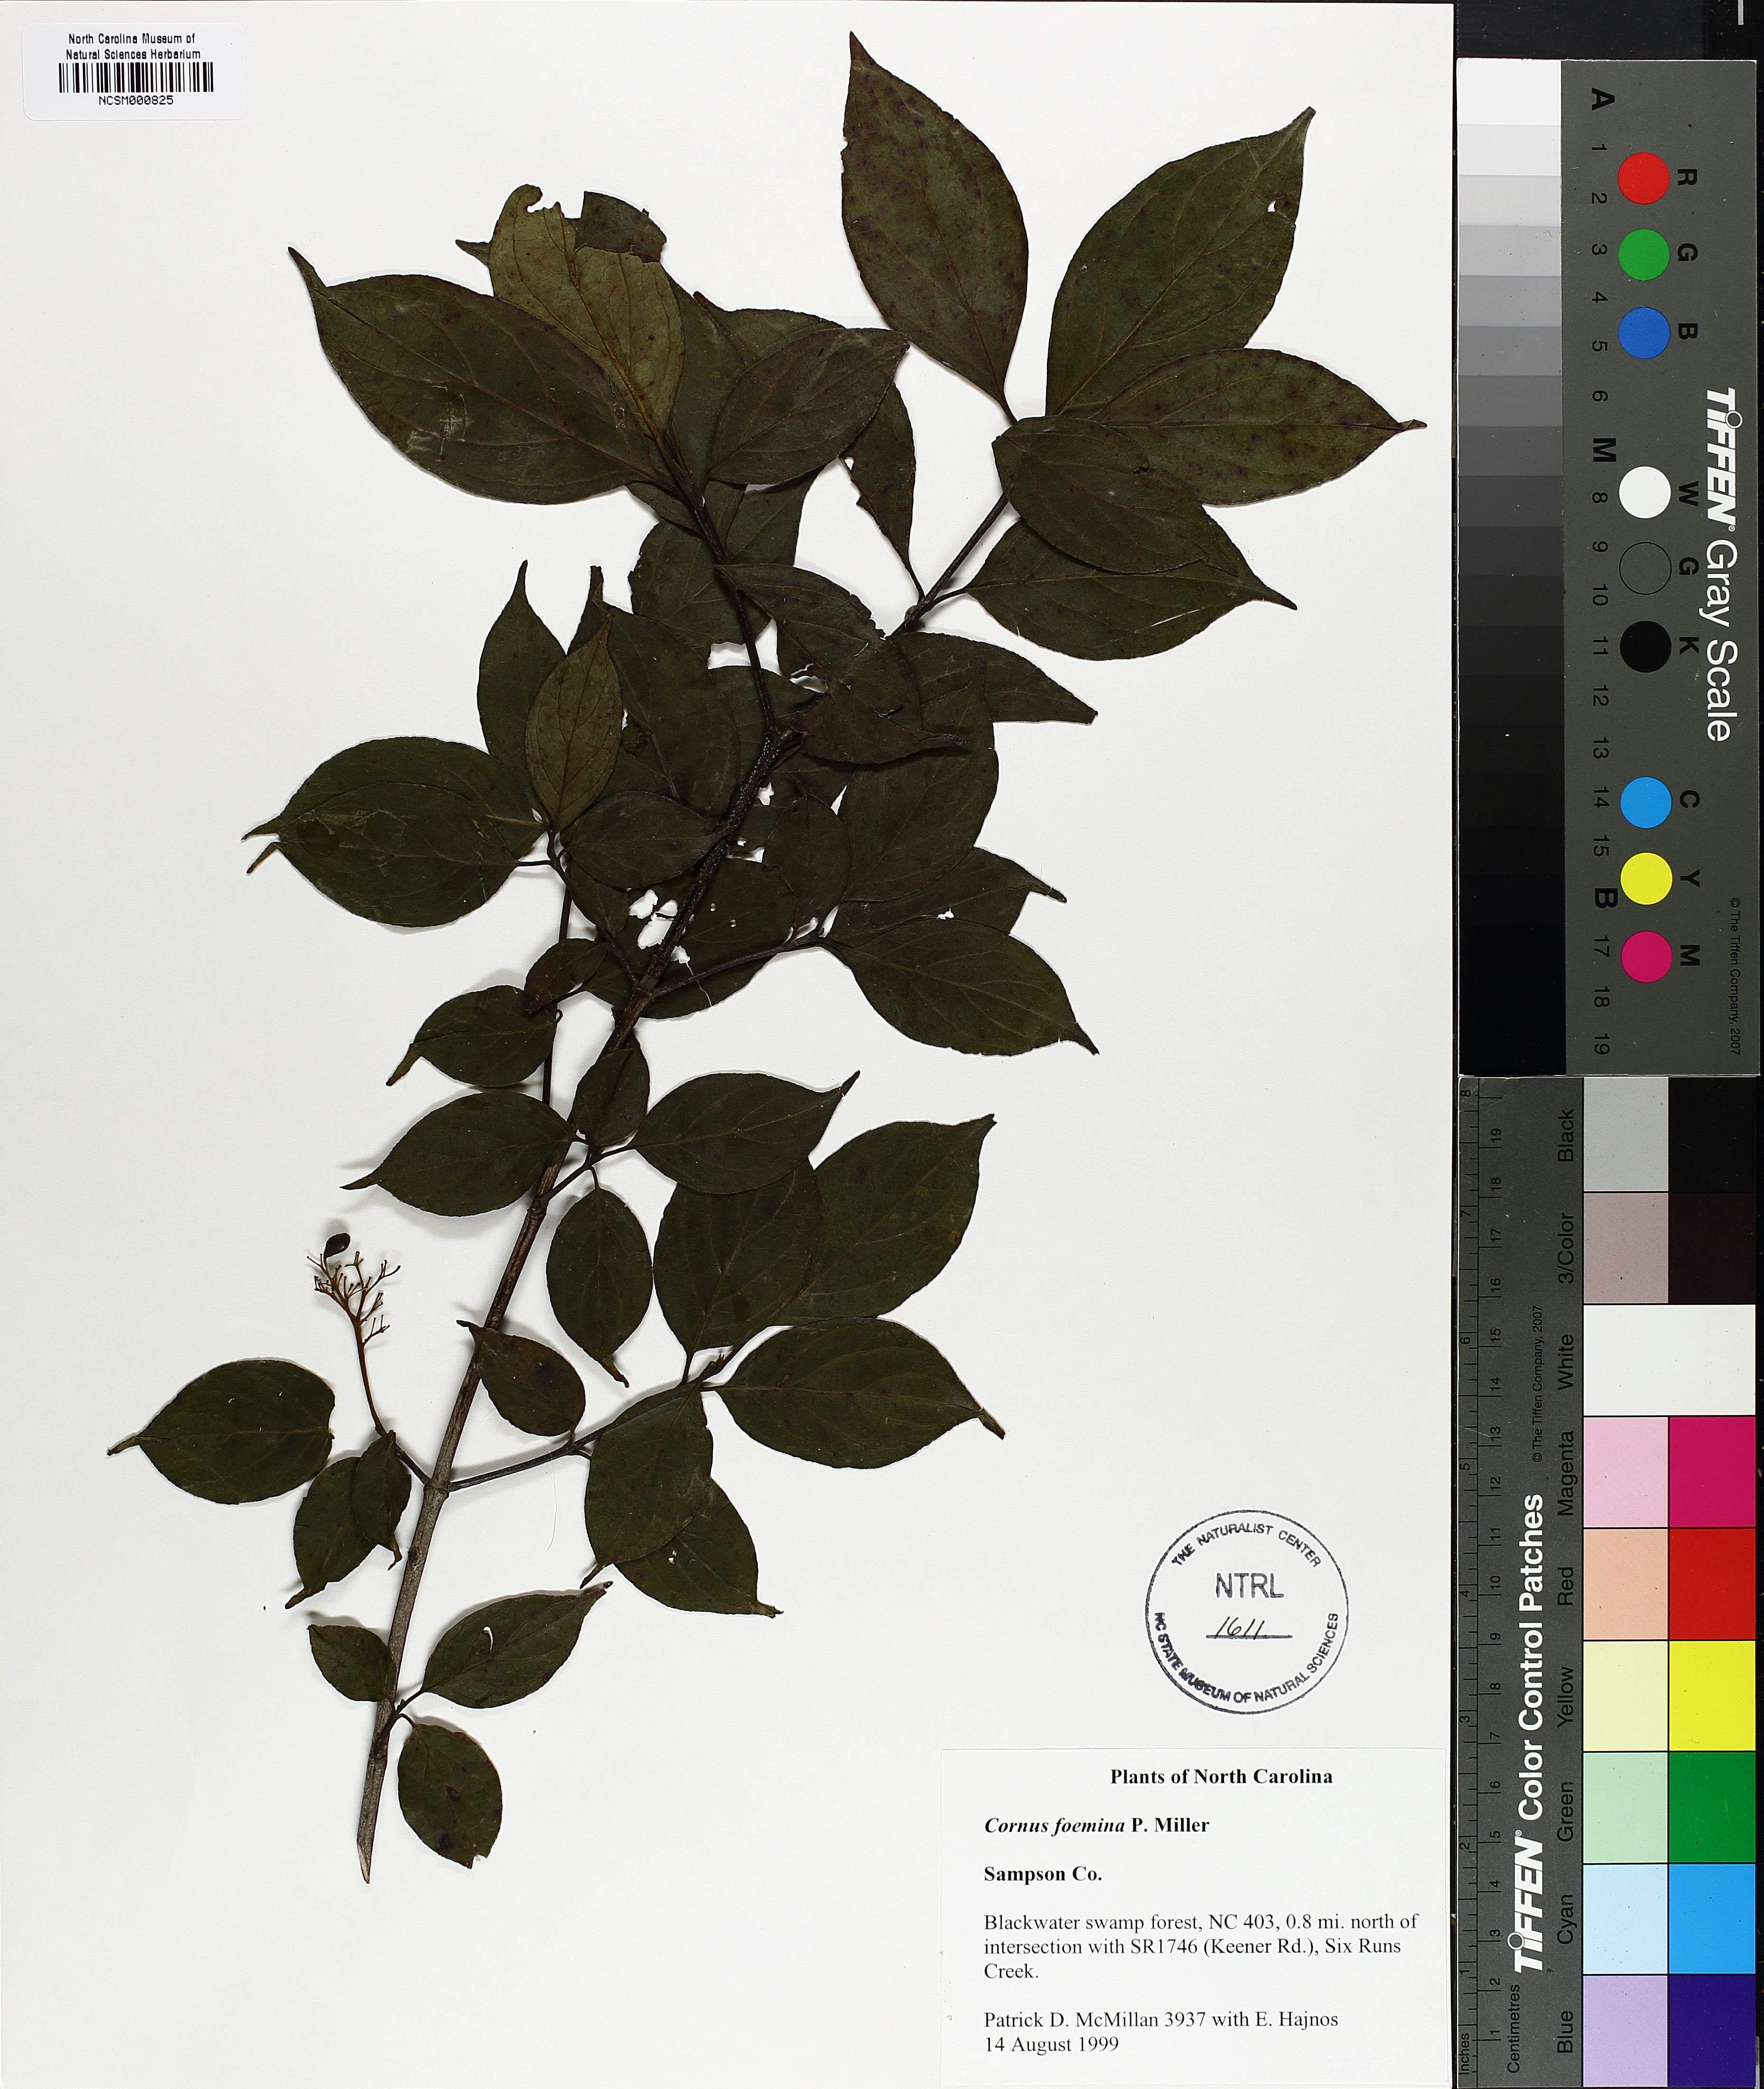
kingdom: Plantae
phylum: Tracheophyta
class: Magnoliopsida
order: Cornales
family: Cornaceae
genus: Cornus
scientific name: Cornus foemina
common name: Swamp dogwood
